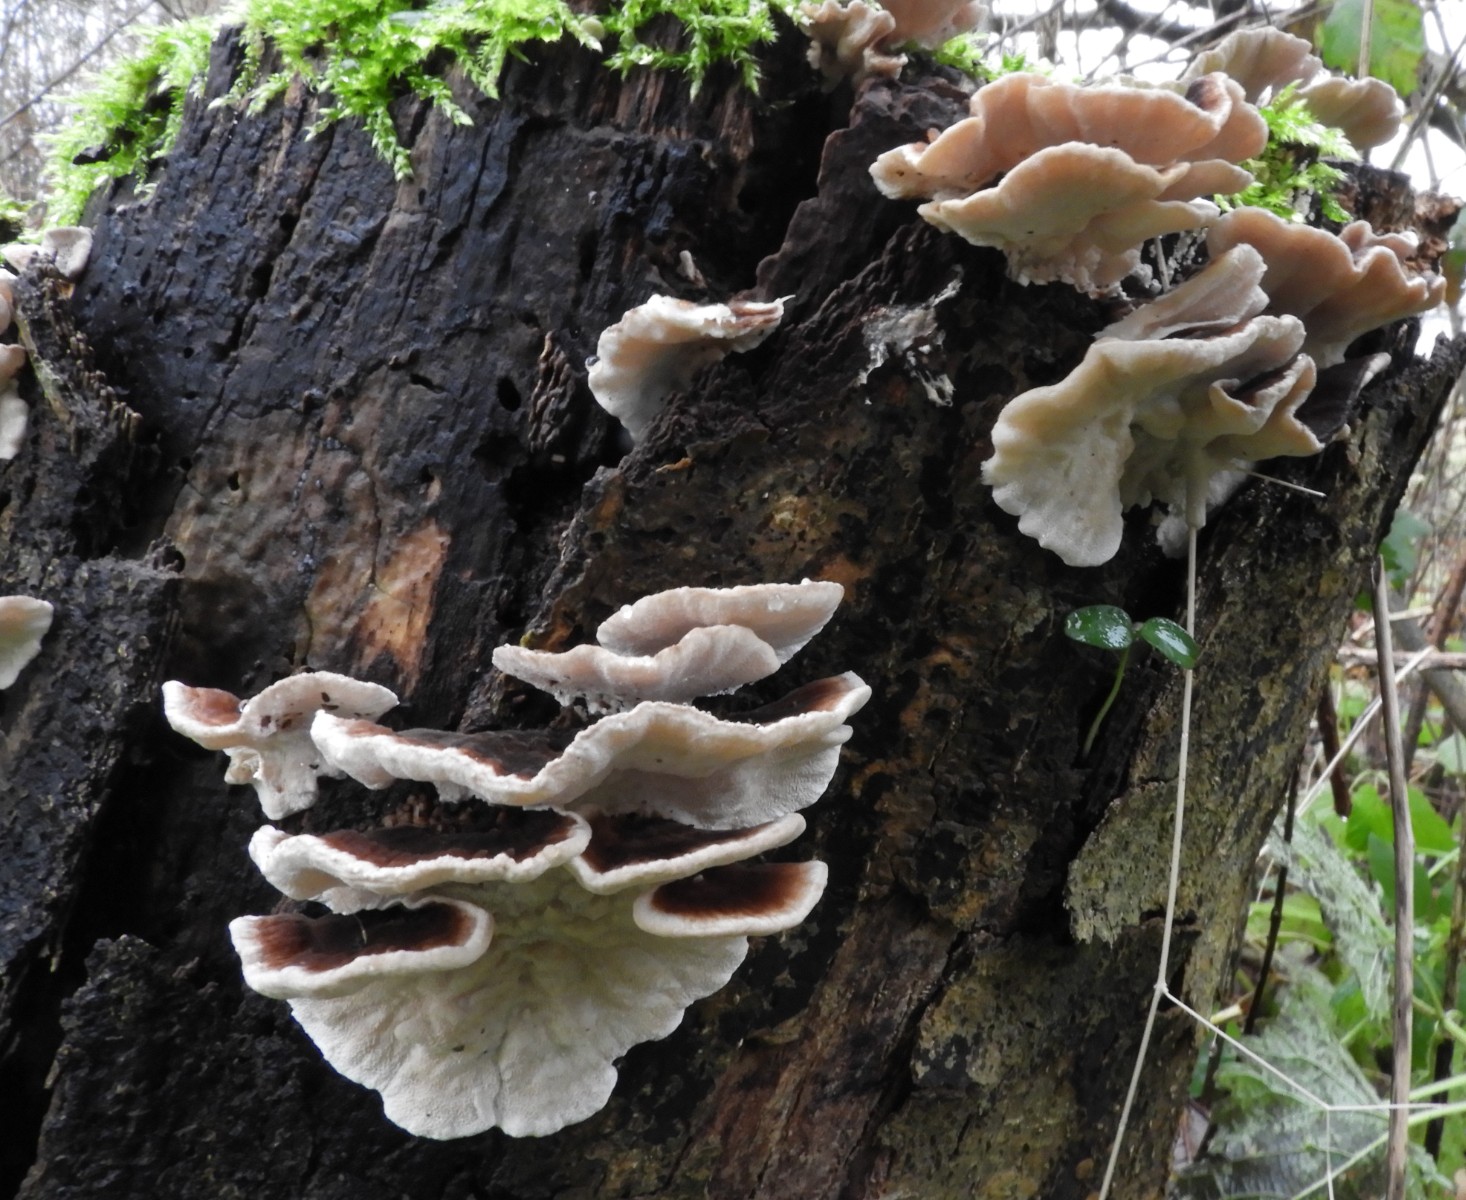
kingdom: Fungi
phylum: Basidiomycota
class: Agaricomycetes
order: Polyporales
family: Polyporaceae
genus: Trametes
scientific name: Trametes versicolor
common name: broget læderporesvamp
